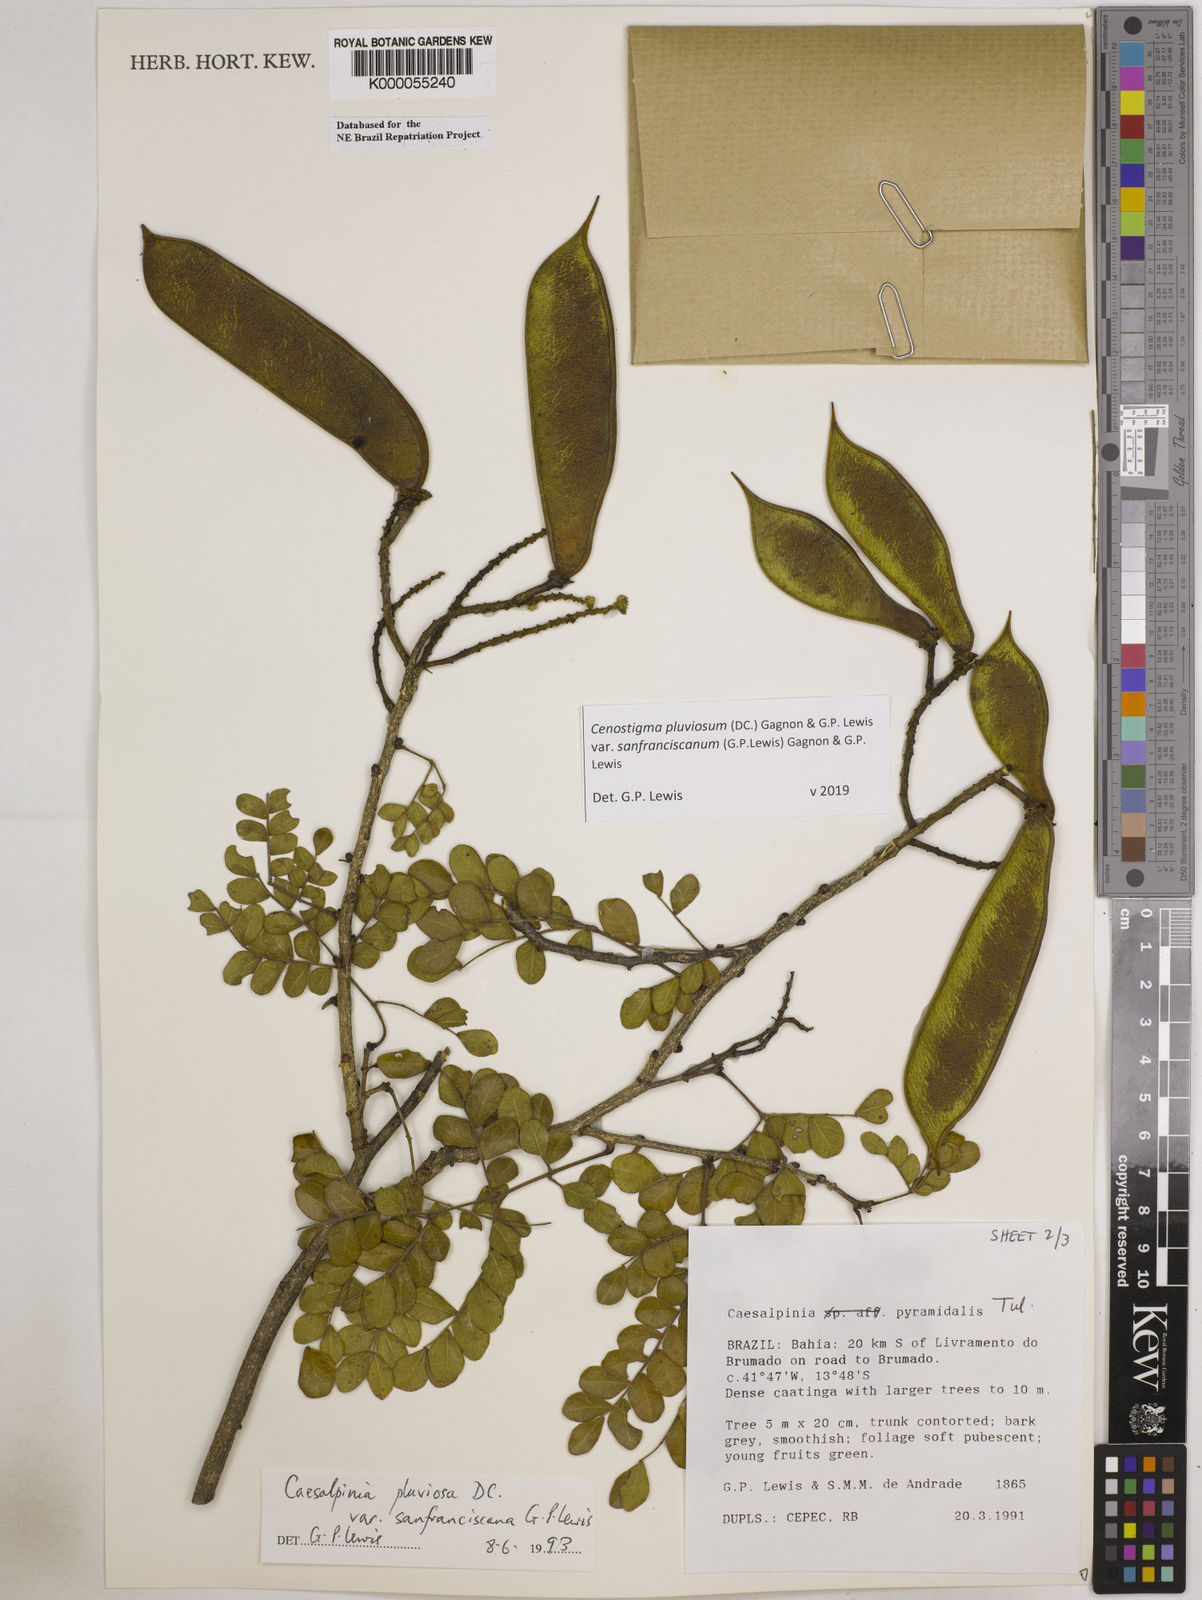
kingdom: Plantae
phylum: Tracheophyta
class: Magnoliopsida
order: Fabales
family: Fabaceae
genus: Cenostigma
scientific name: Cenostigma pluviosum
